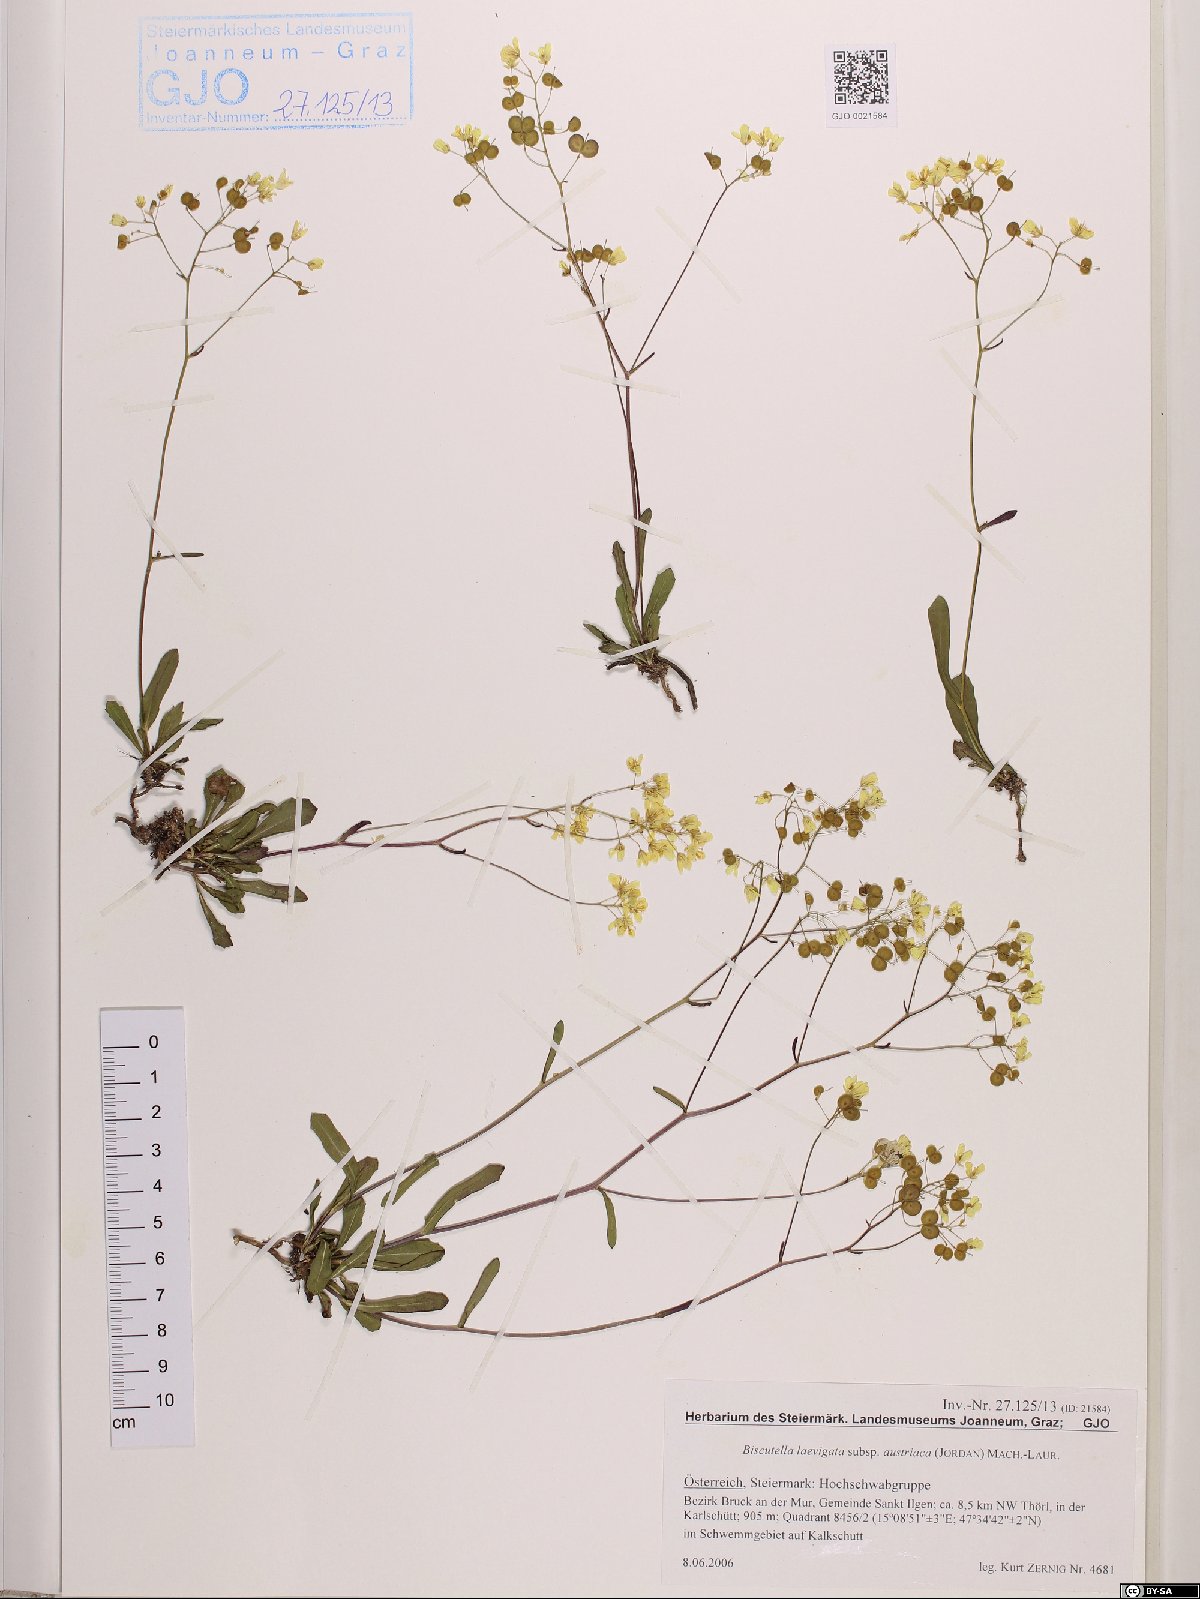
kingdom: Plantae
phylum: Tracheophyta
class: Magnoliopsida
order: Brassicales
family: Brassicaceae
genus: Biscutella
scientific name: Biscutella laevigata
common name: Buckler mustard
